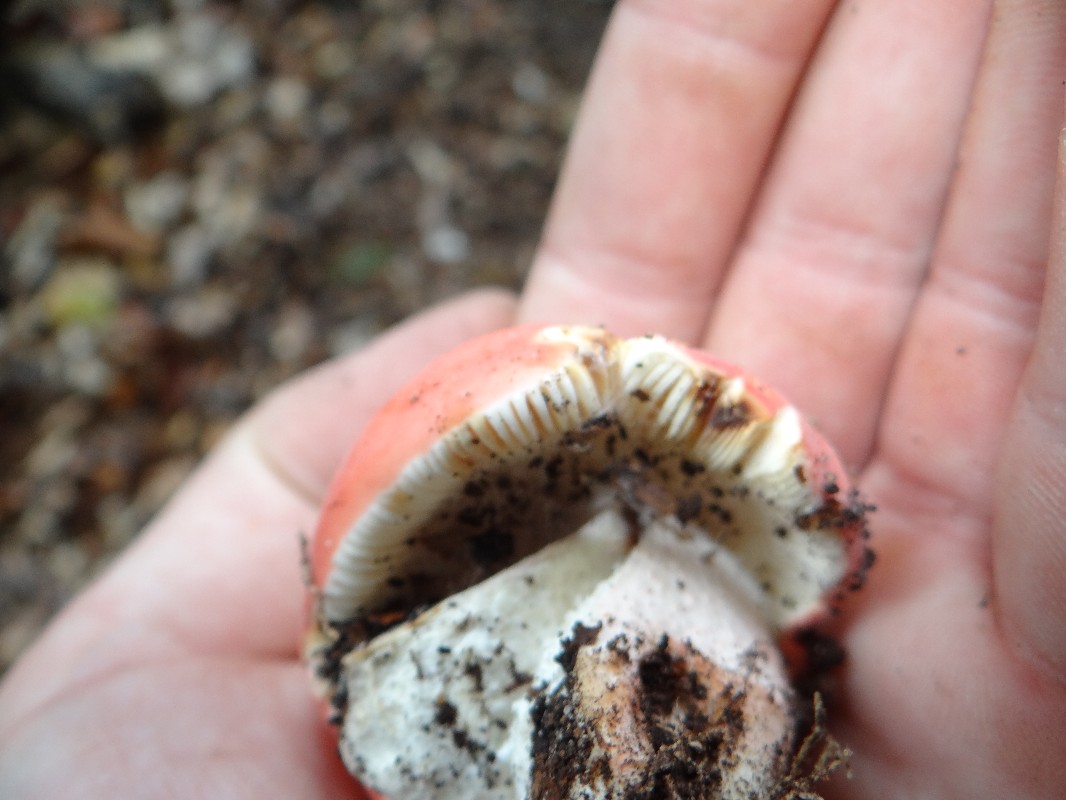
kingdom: Fungi
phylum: Basidiomycota
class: Agaricomycetes
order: Russulales
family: Russulaceae
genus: Russula
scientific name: Russula rosea
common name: fastkødet skørhat
